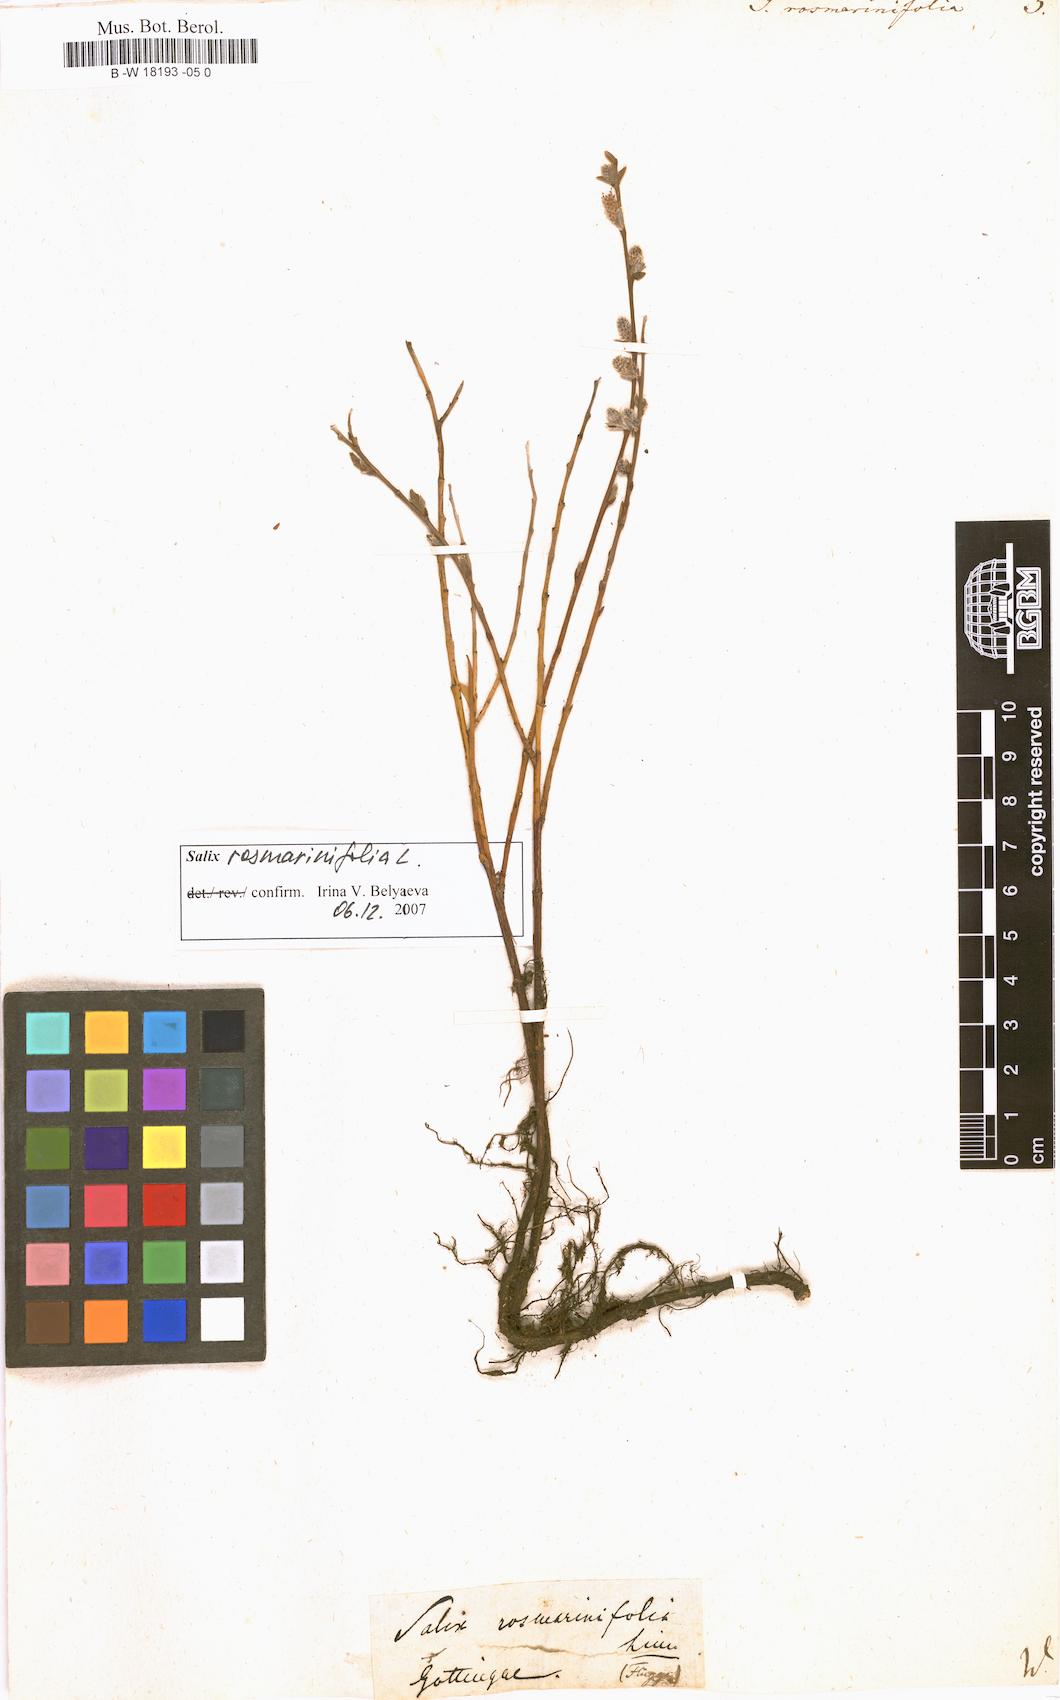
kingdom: Plantae
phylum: Tracheophyta
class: Magnoliopsida
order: Malpighiales
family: Salicaceae
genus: Salix
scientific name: Salix rosmarinifolia
